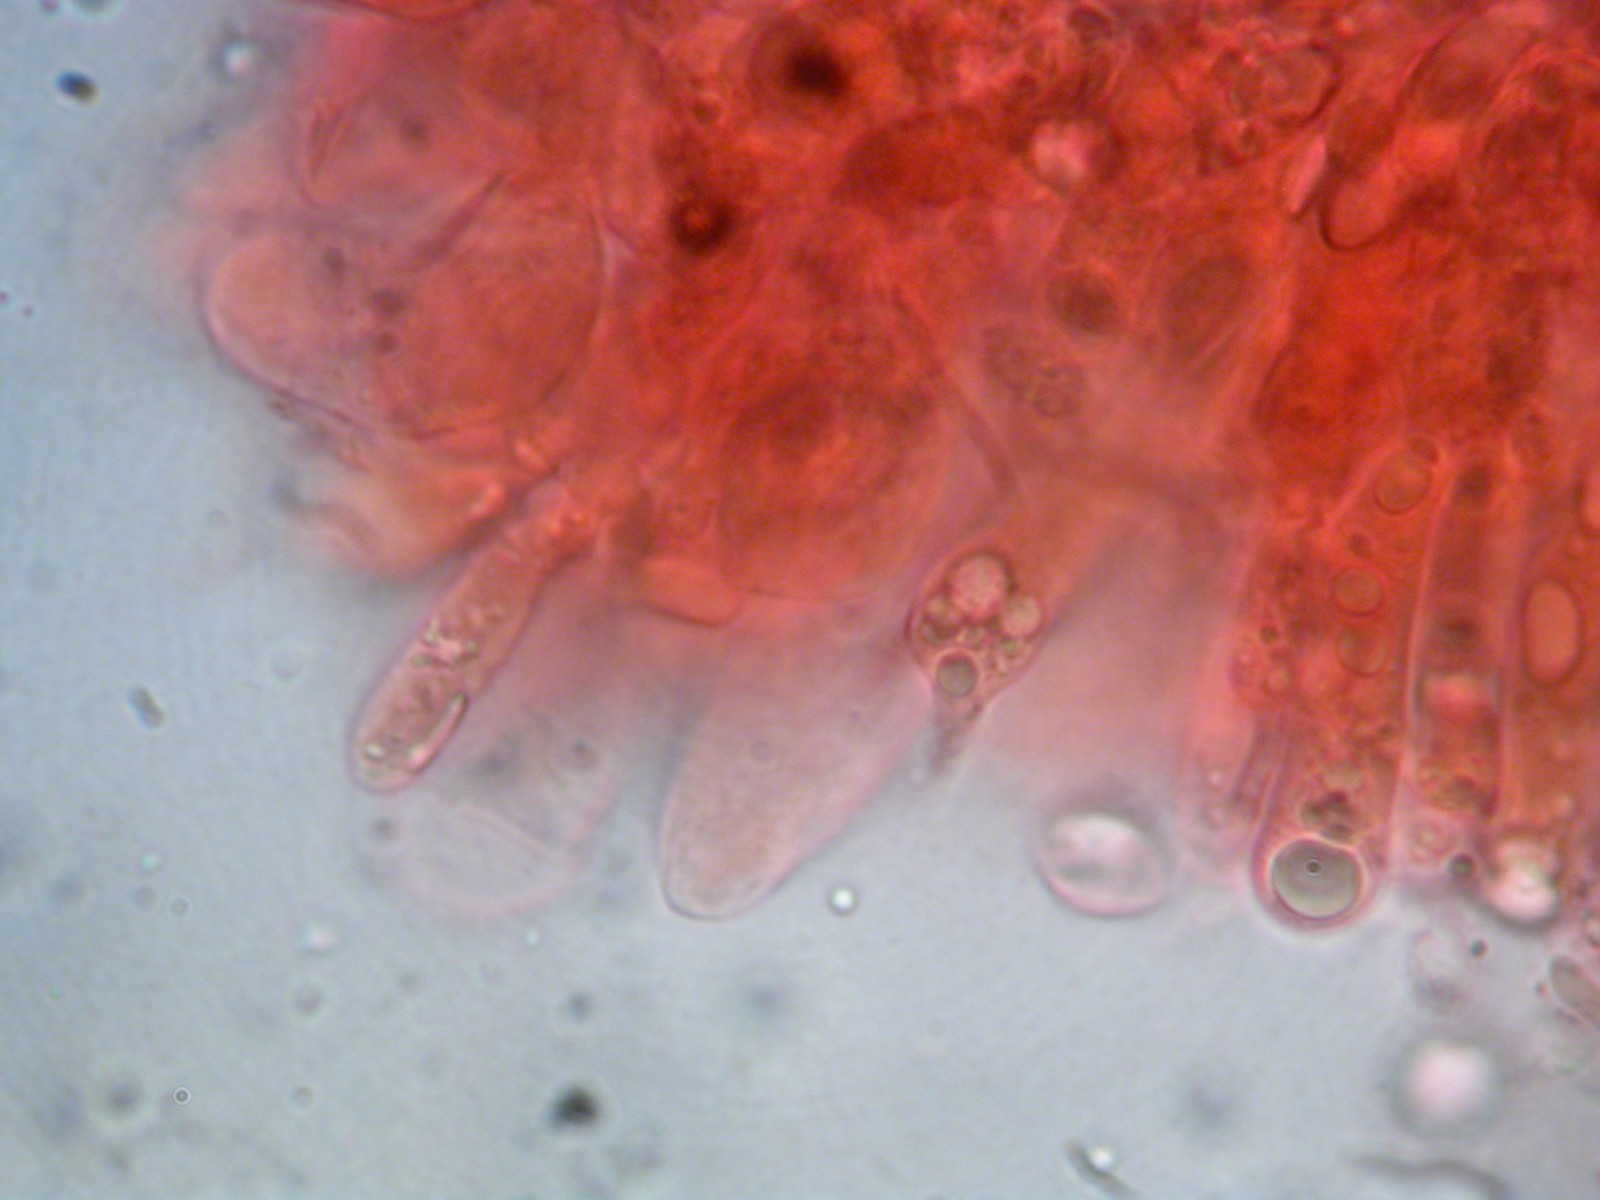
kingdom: Fungi
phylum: Basidiomycota
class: Agaricomycetes
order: Agaricales
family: Mycenaceae
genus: Mycena
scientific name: Mycena stipata
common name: stinkende huesvamp
